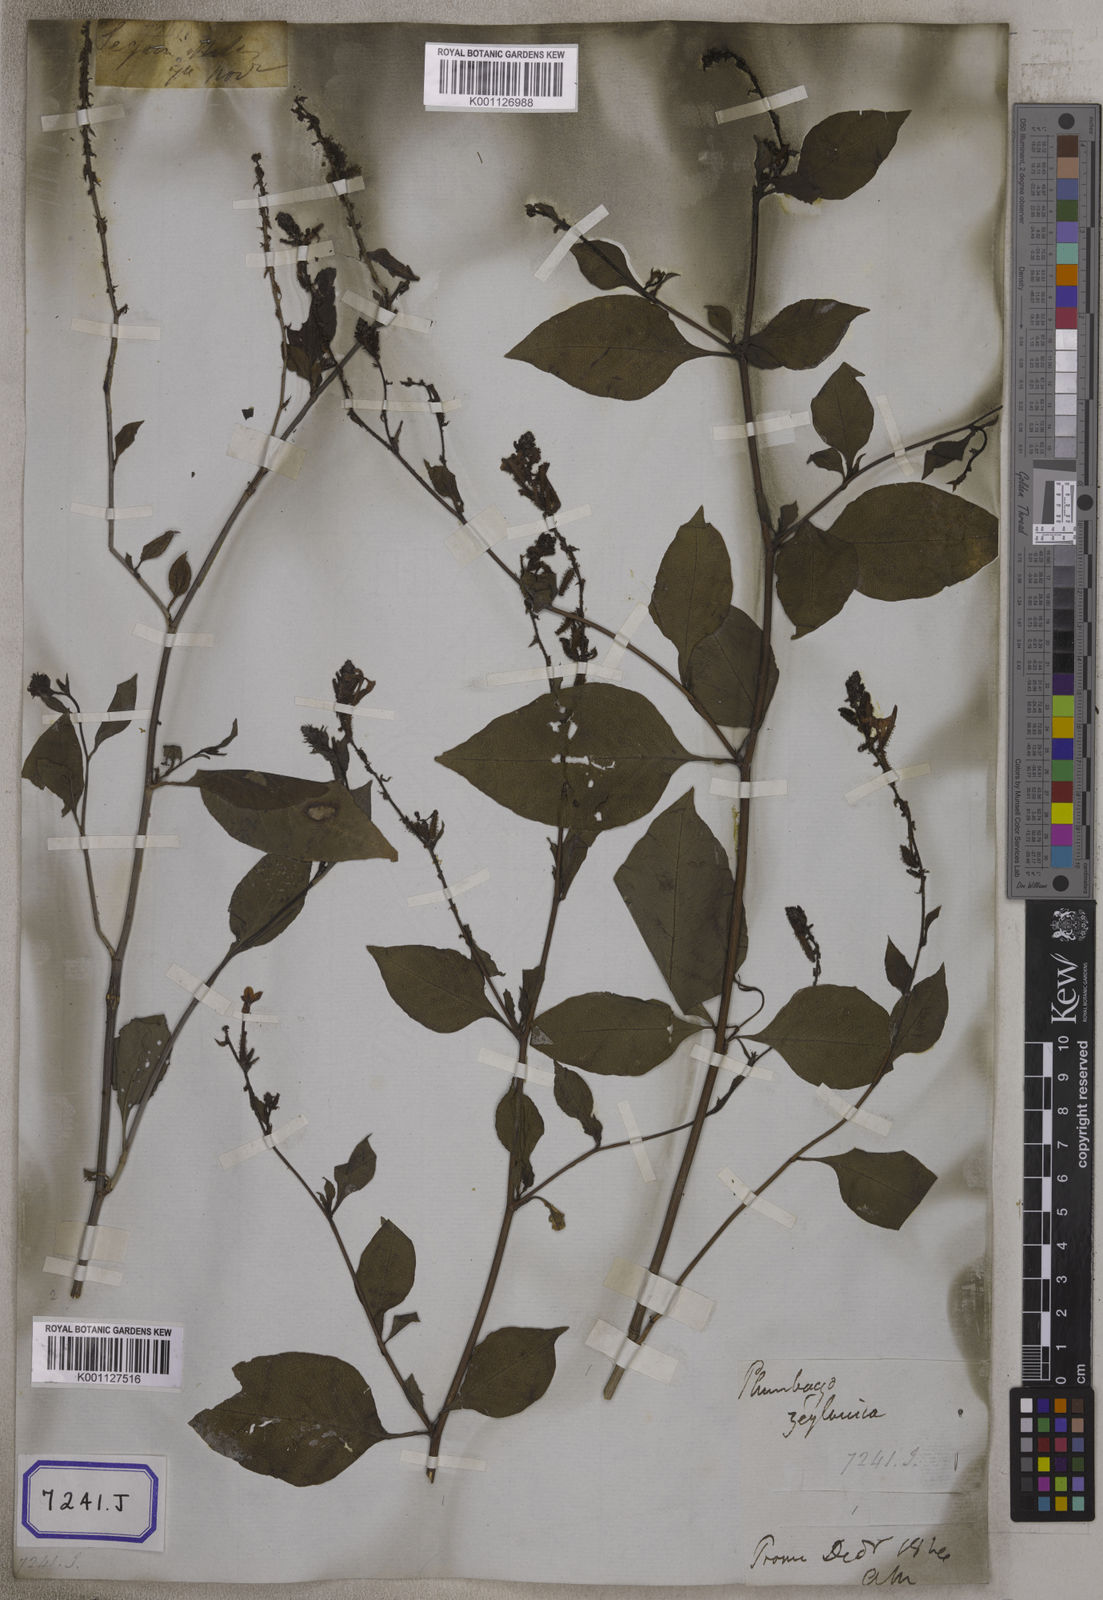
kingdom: Plantae
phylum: Tracheophyta
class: Magnoliopsida
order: Caryophyllales
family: Plumbaginaceae
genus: Plumbago
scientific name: Plumbago zeylanica
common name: Doctorbush
